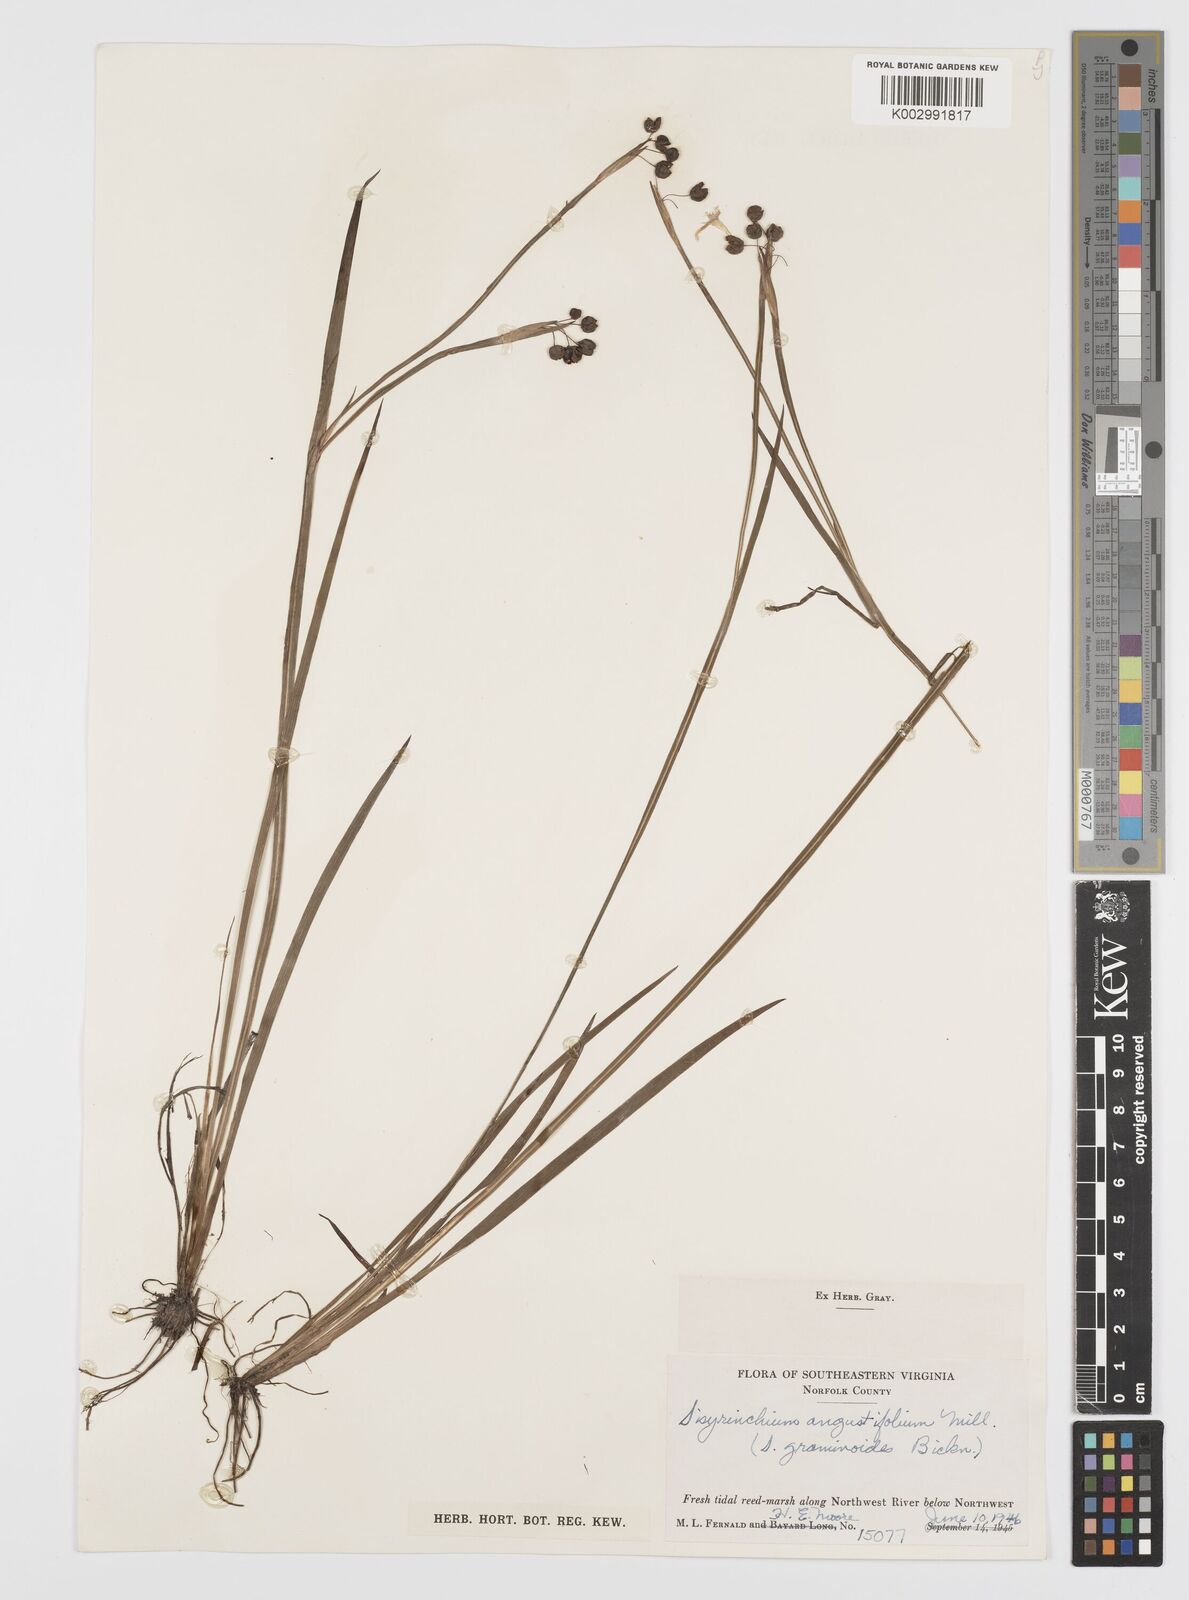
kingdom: Plantae
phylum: Tracheophyta
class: Liliopsida
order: Asparagales
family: Iridaceae
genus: Sisyrinchium
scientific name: Sisyrinchium bermudiana
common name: Blue-eyed-grass
